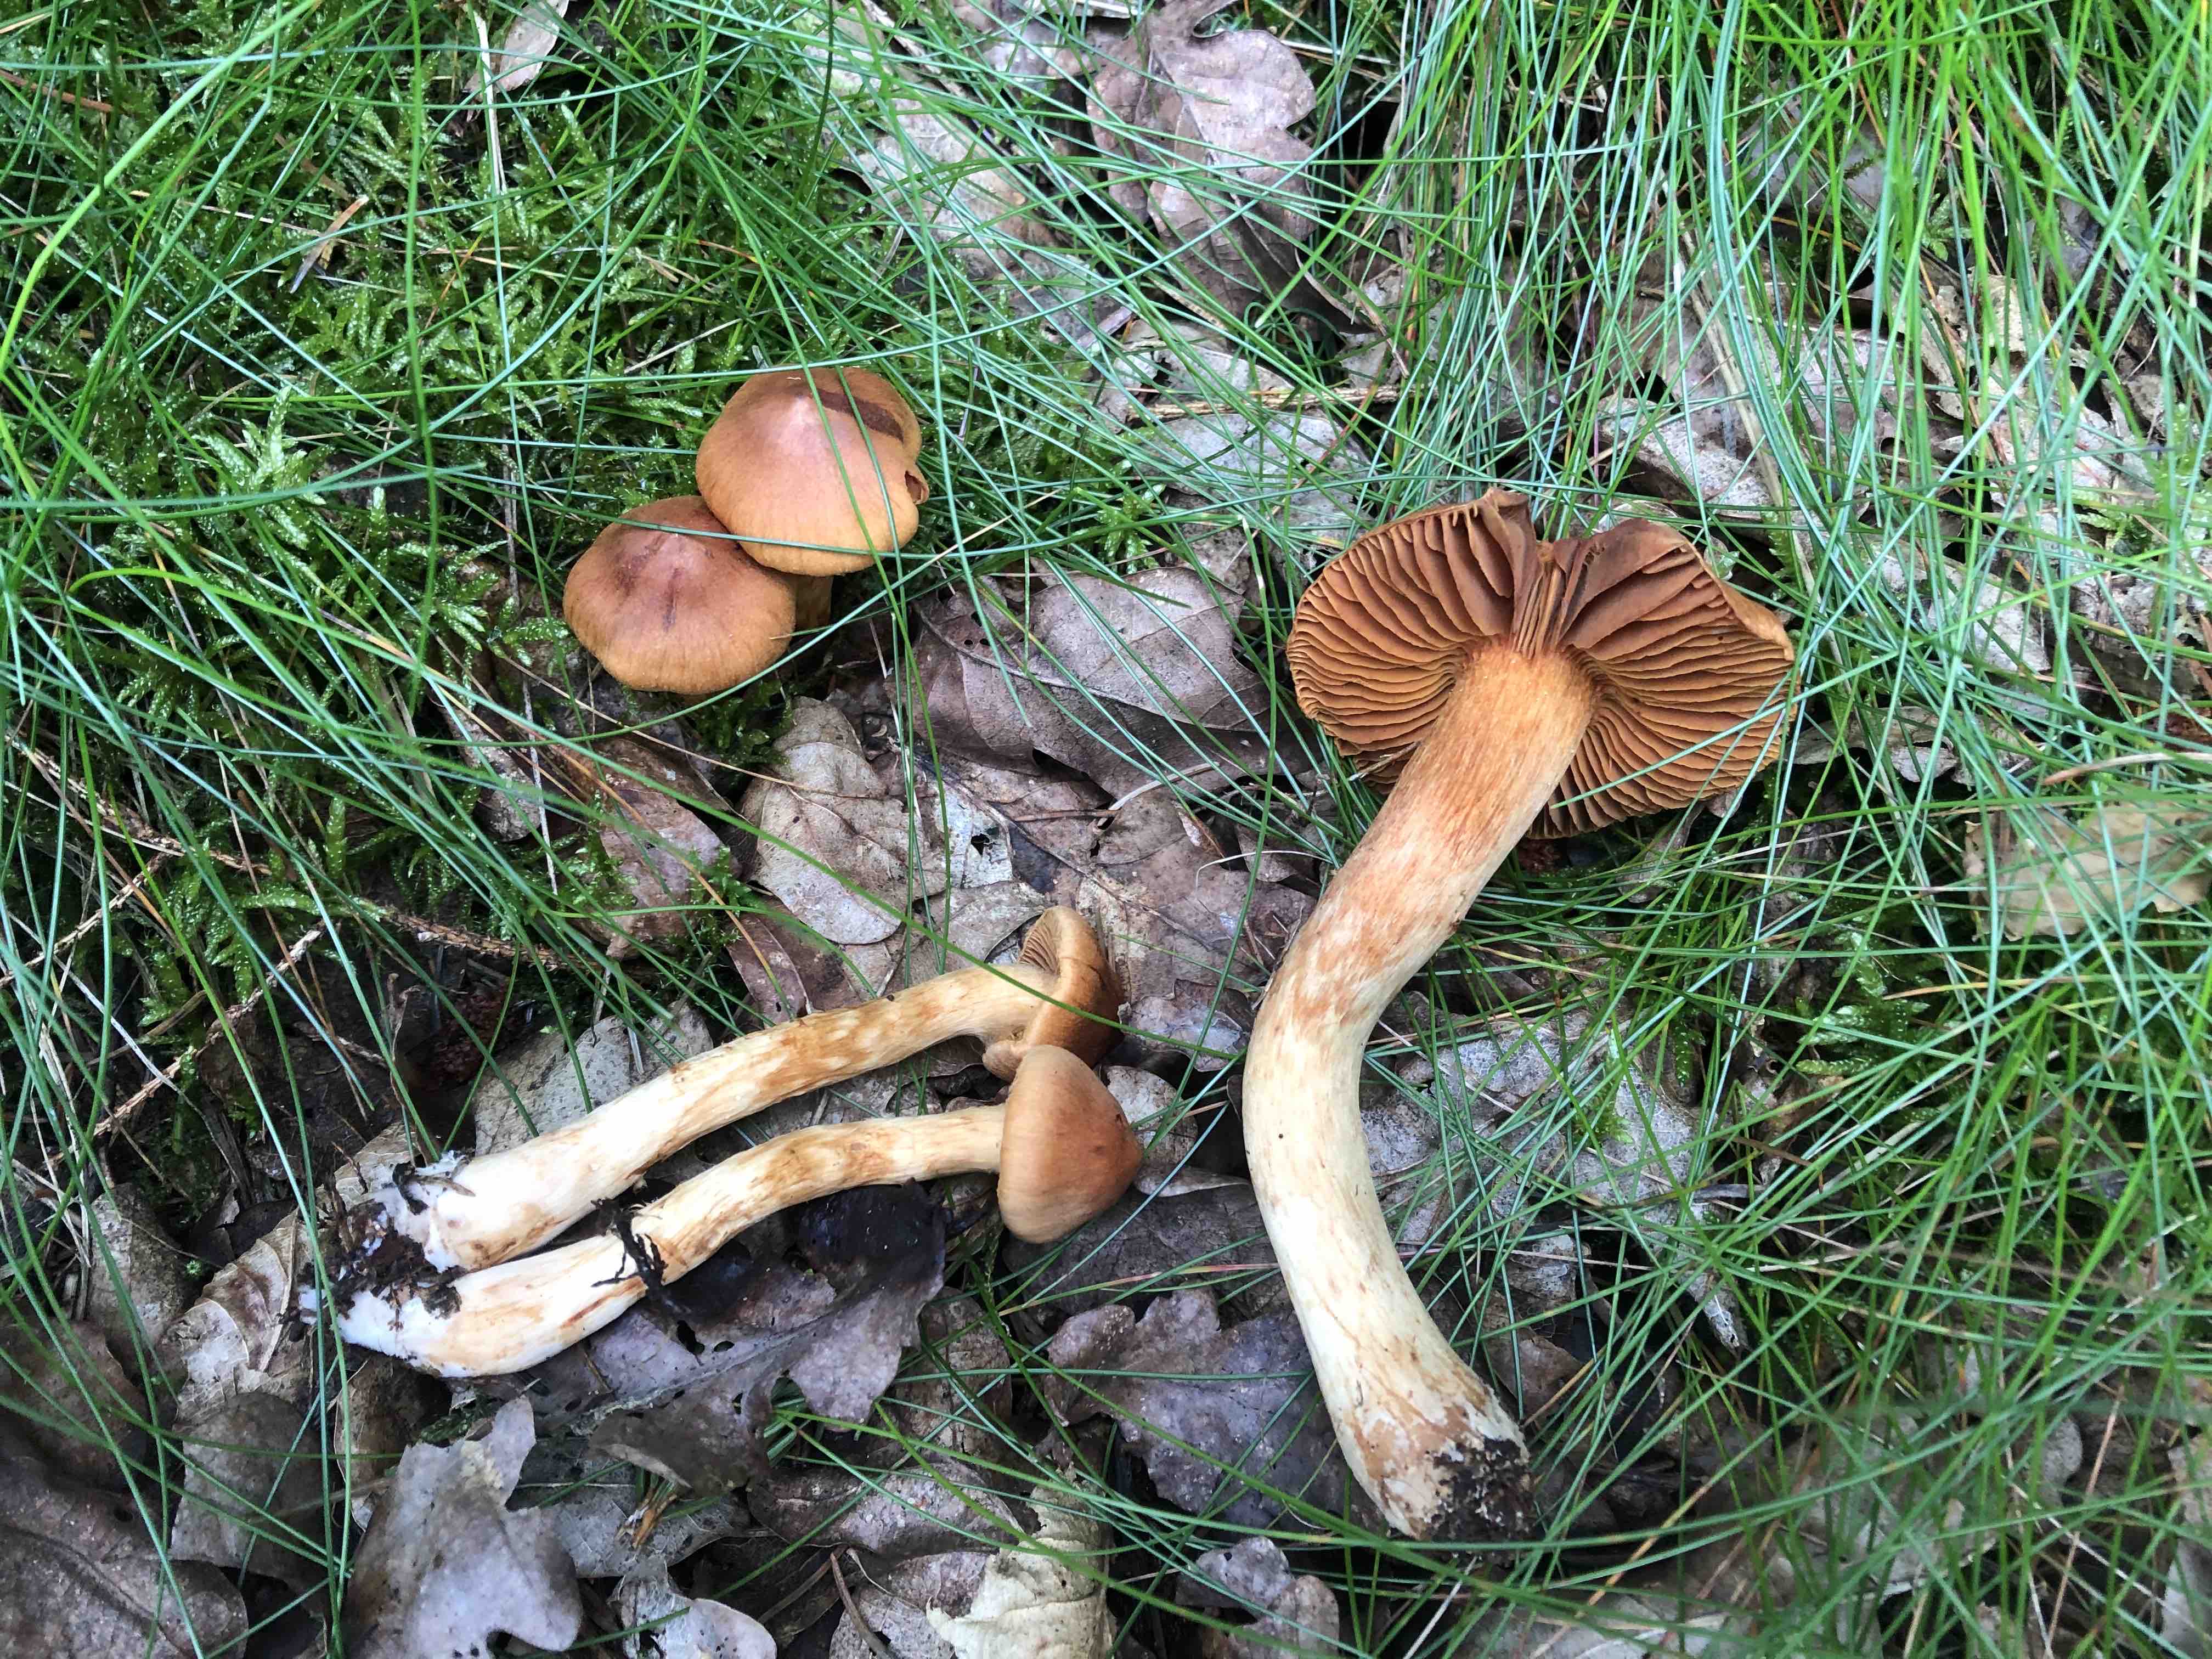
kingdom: Fungi
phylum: Basidiomycota
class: Agaricomycetes
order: Agaricales
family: Cortinariaceae
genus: Cortinarius
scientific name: Cortinarius rubellus
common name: puklet gift-slørhat
